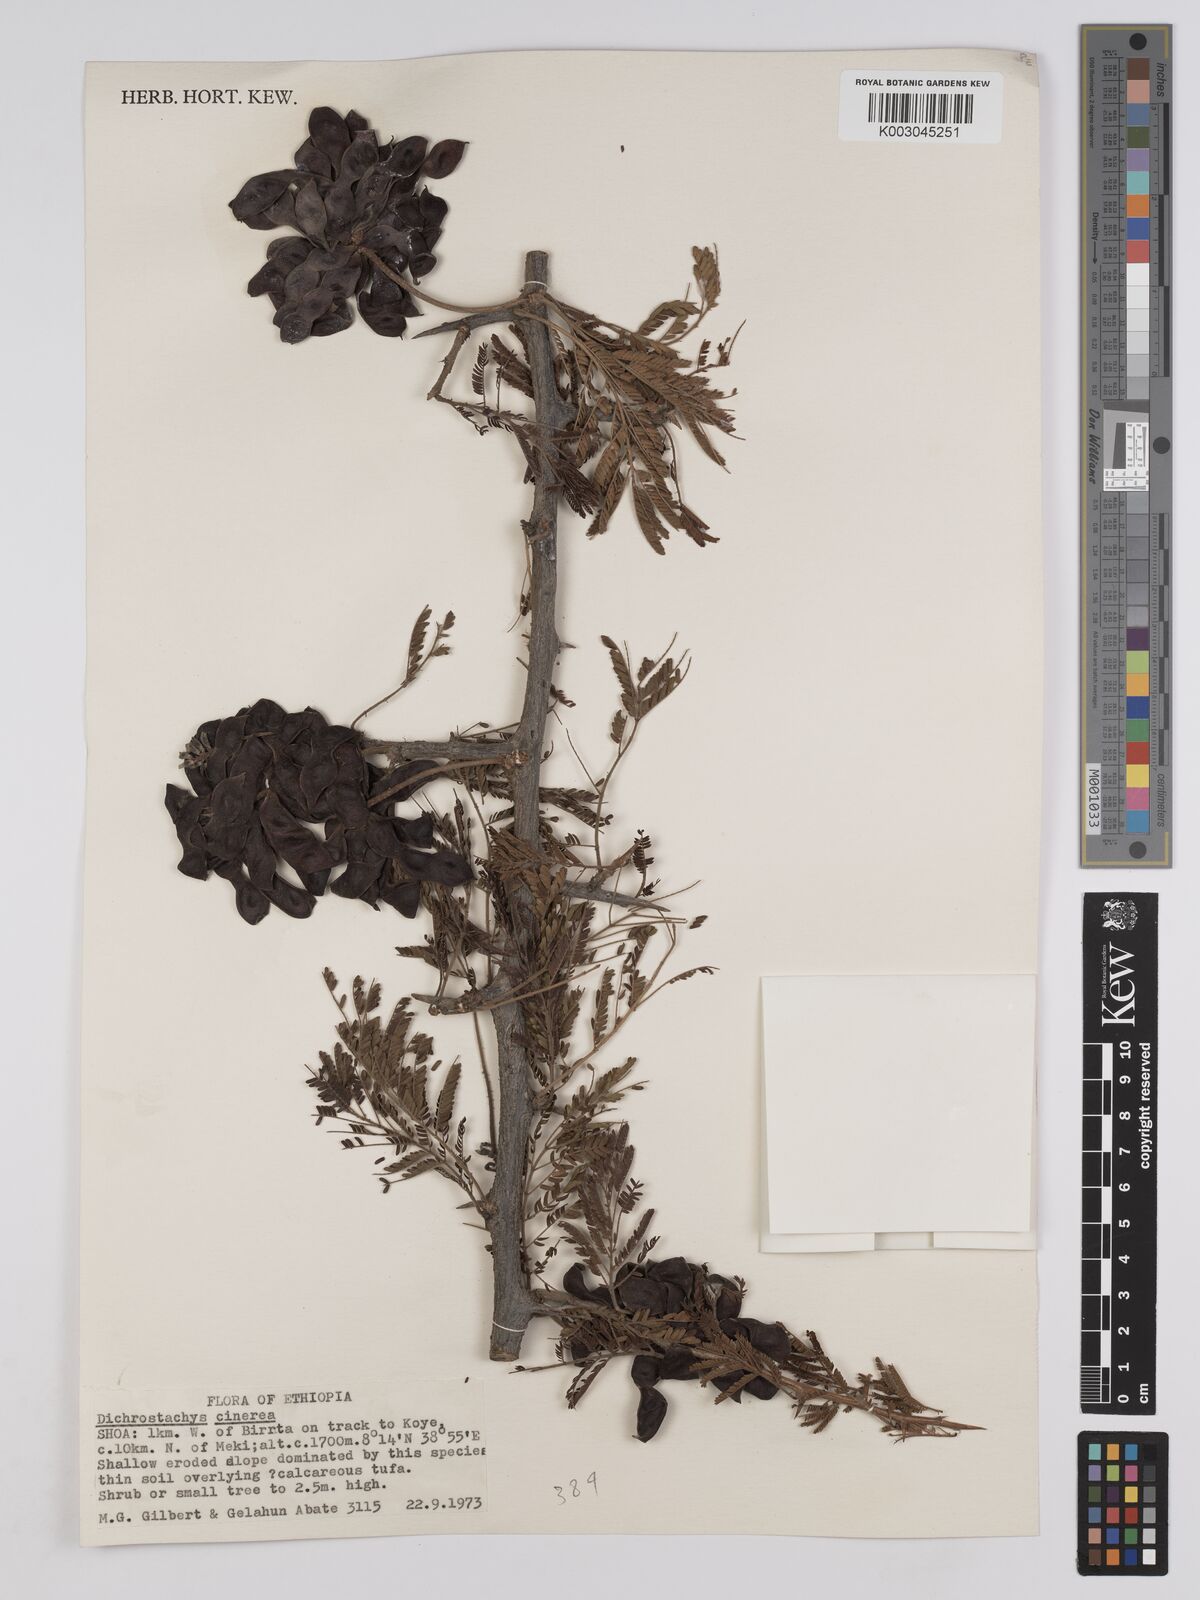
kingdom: Plantae
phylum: Tracheophyta
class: Magnoliopsida
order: Fabales
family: Fabaceae
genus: Dichrostachys
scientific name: Dichrostachys cinerea
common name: Sicklebush
